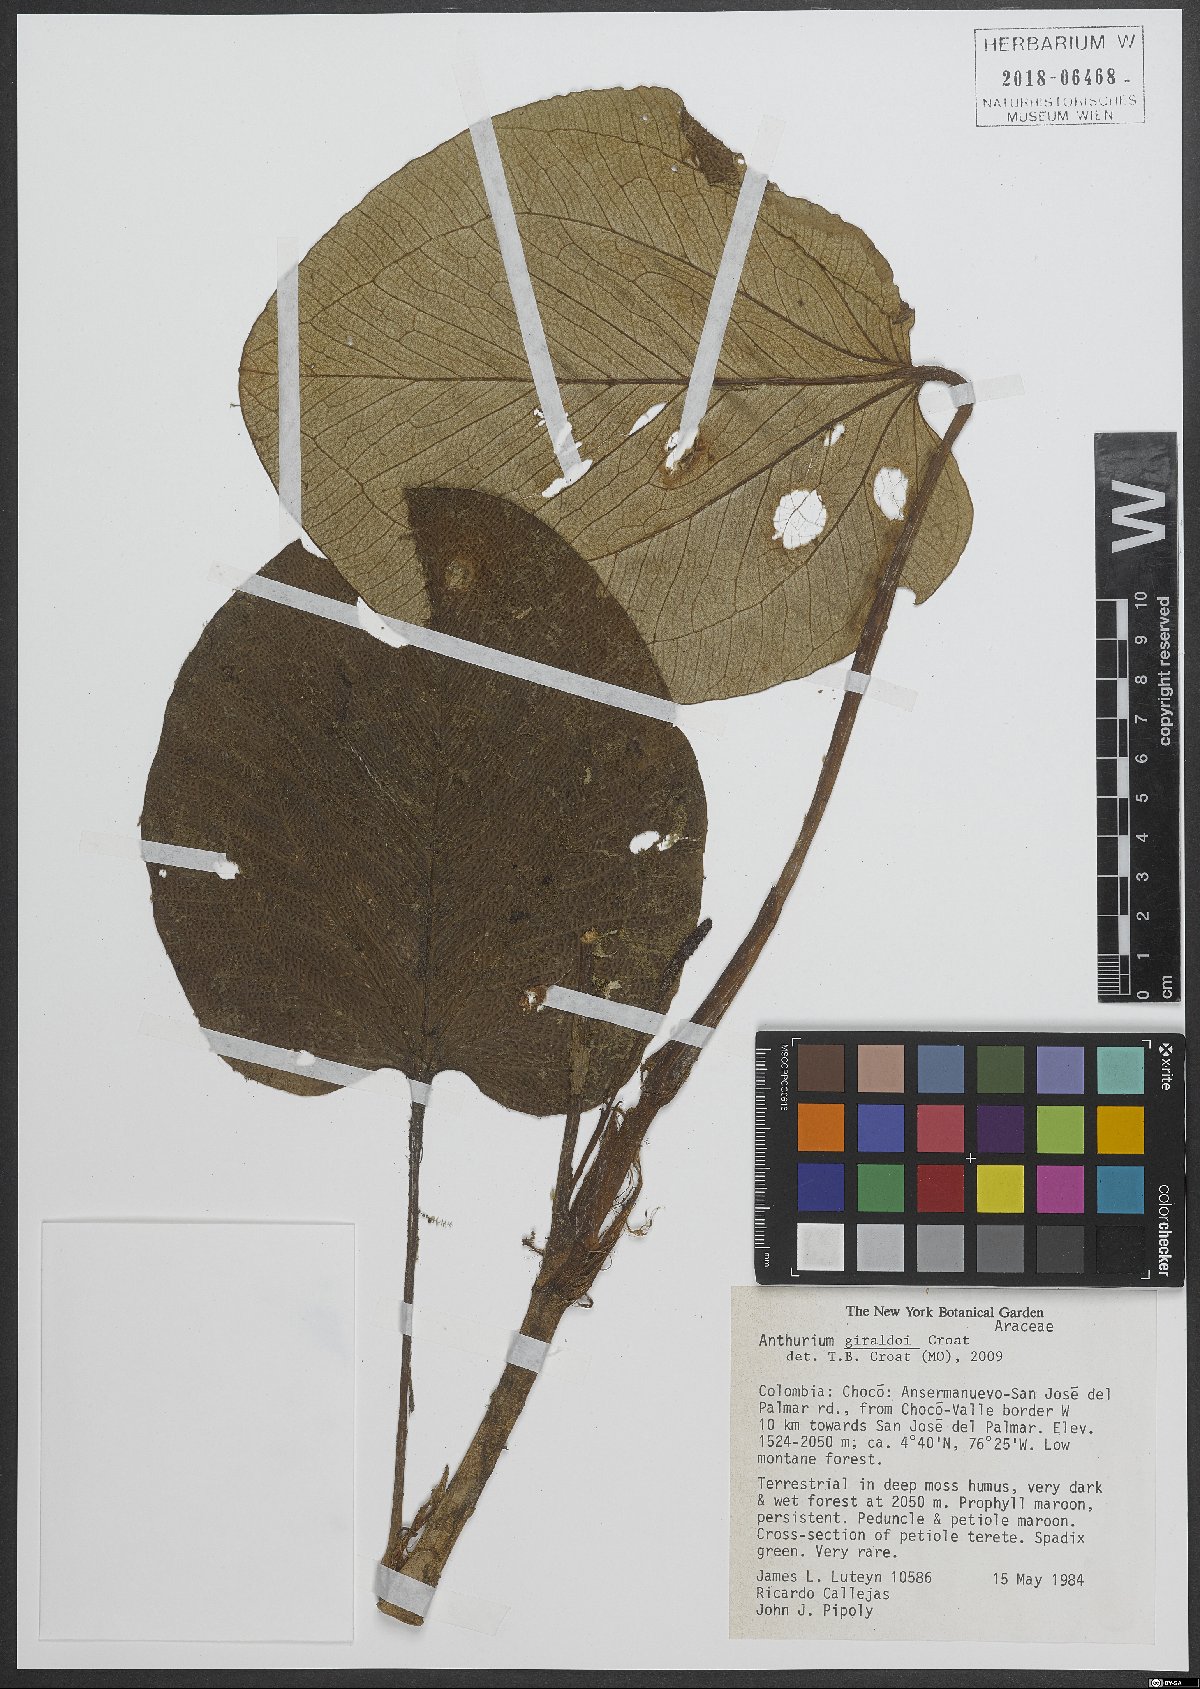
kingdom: Plantae
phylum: Tracheophyta
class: Liliopsida
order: Alismatales
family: Araceae
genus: Anthurium
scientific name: Anthurium giraldoi
